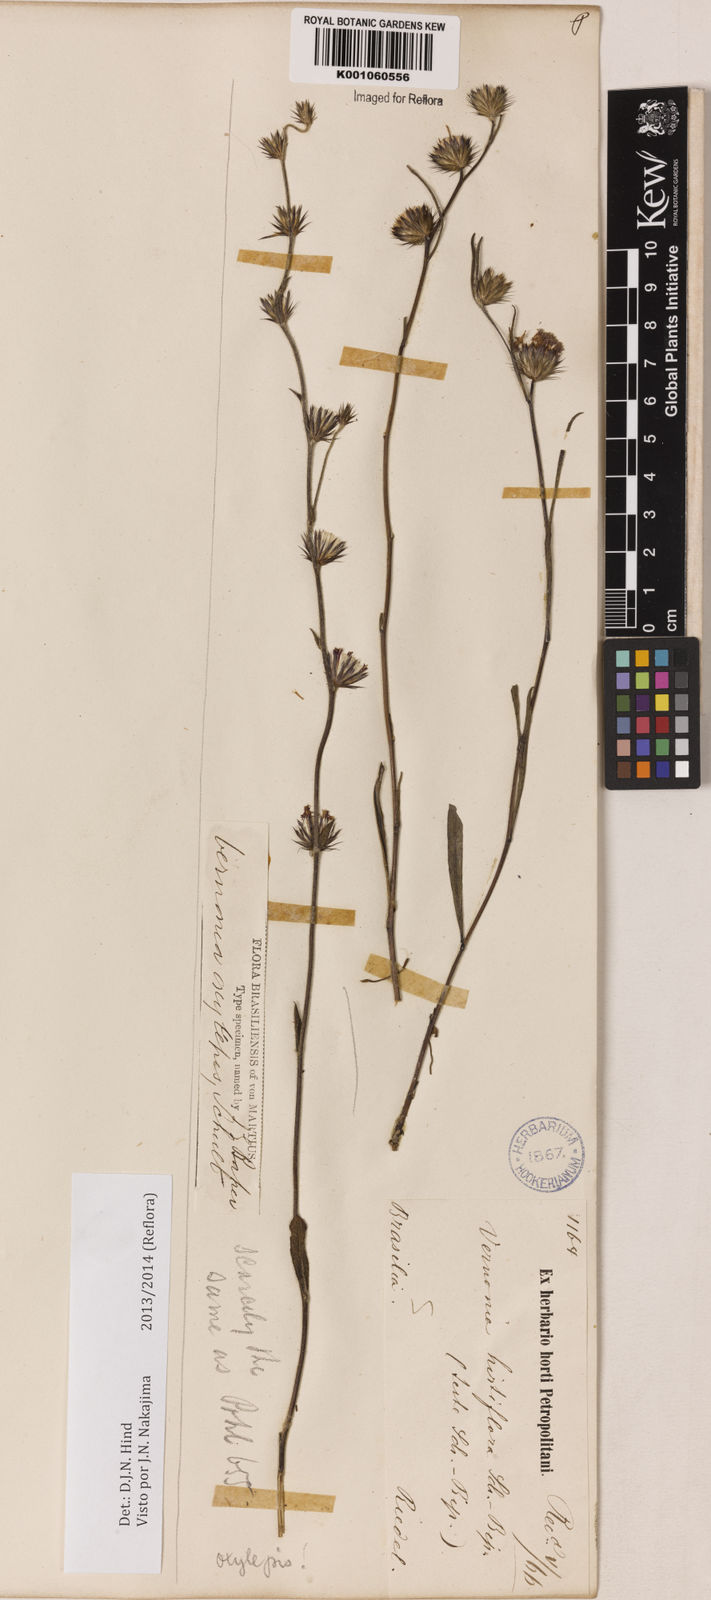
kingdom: Plantae
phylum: Tracheophyta
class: Magnoliopsida
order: Asterales
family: Asteraceae
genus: Lepidaploa
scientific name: Lepidaploa psilostachya
